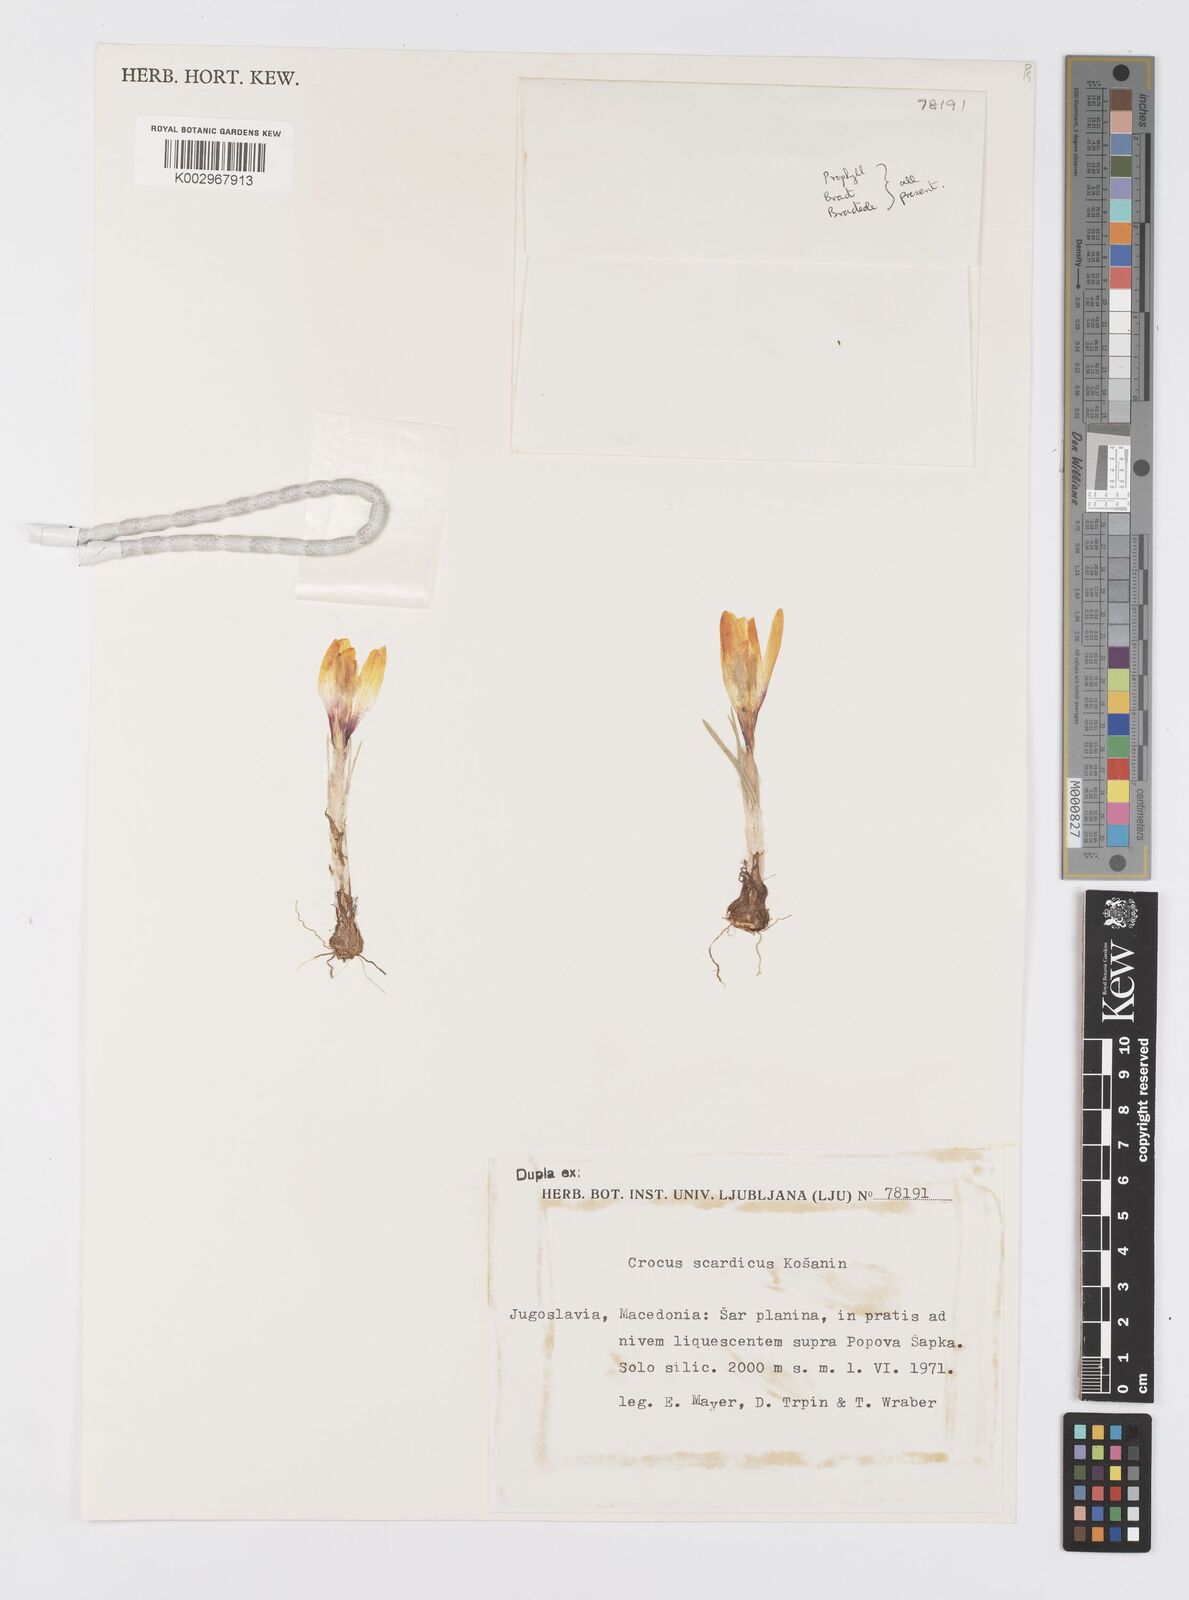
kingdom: Plantae
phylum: Tracheophyta
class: Liliopsida
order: Asparagales
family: Iridaceae
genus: Crocus
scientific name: Crocus scardicus
